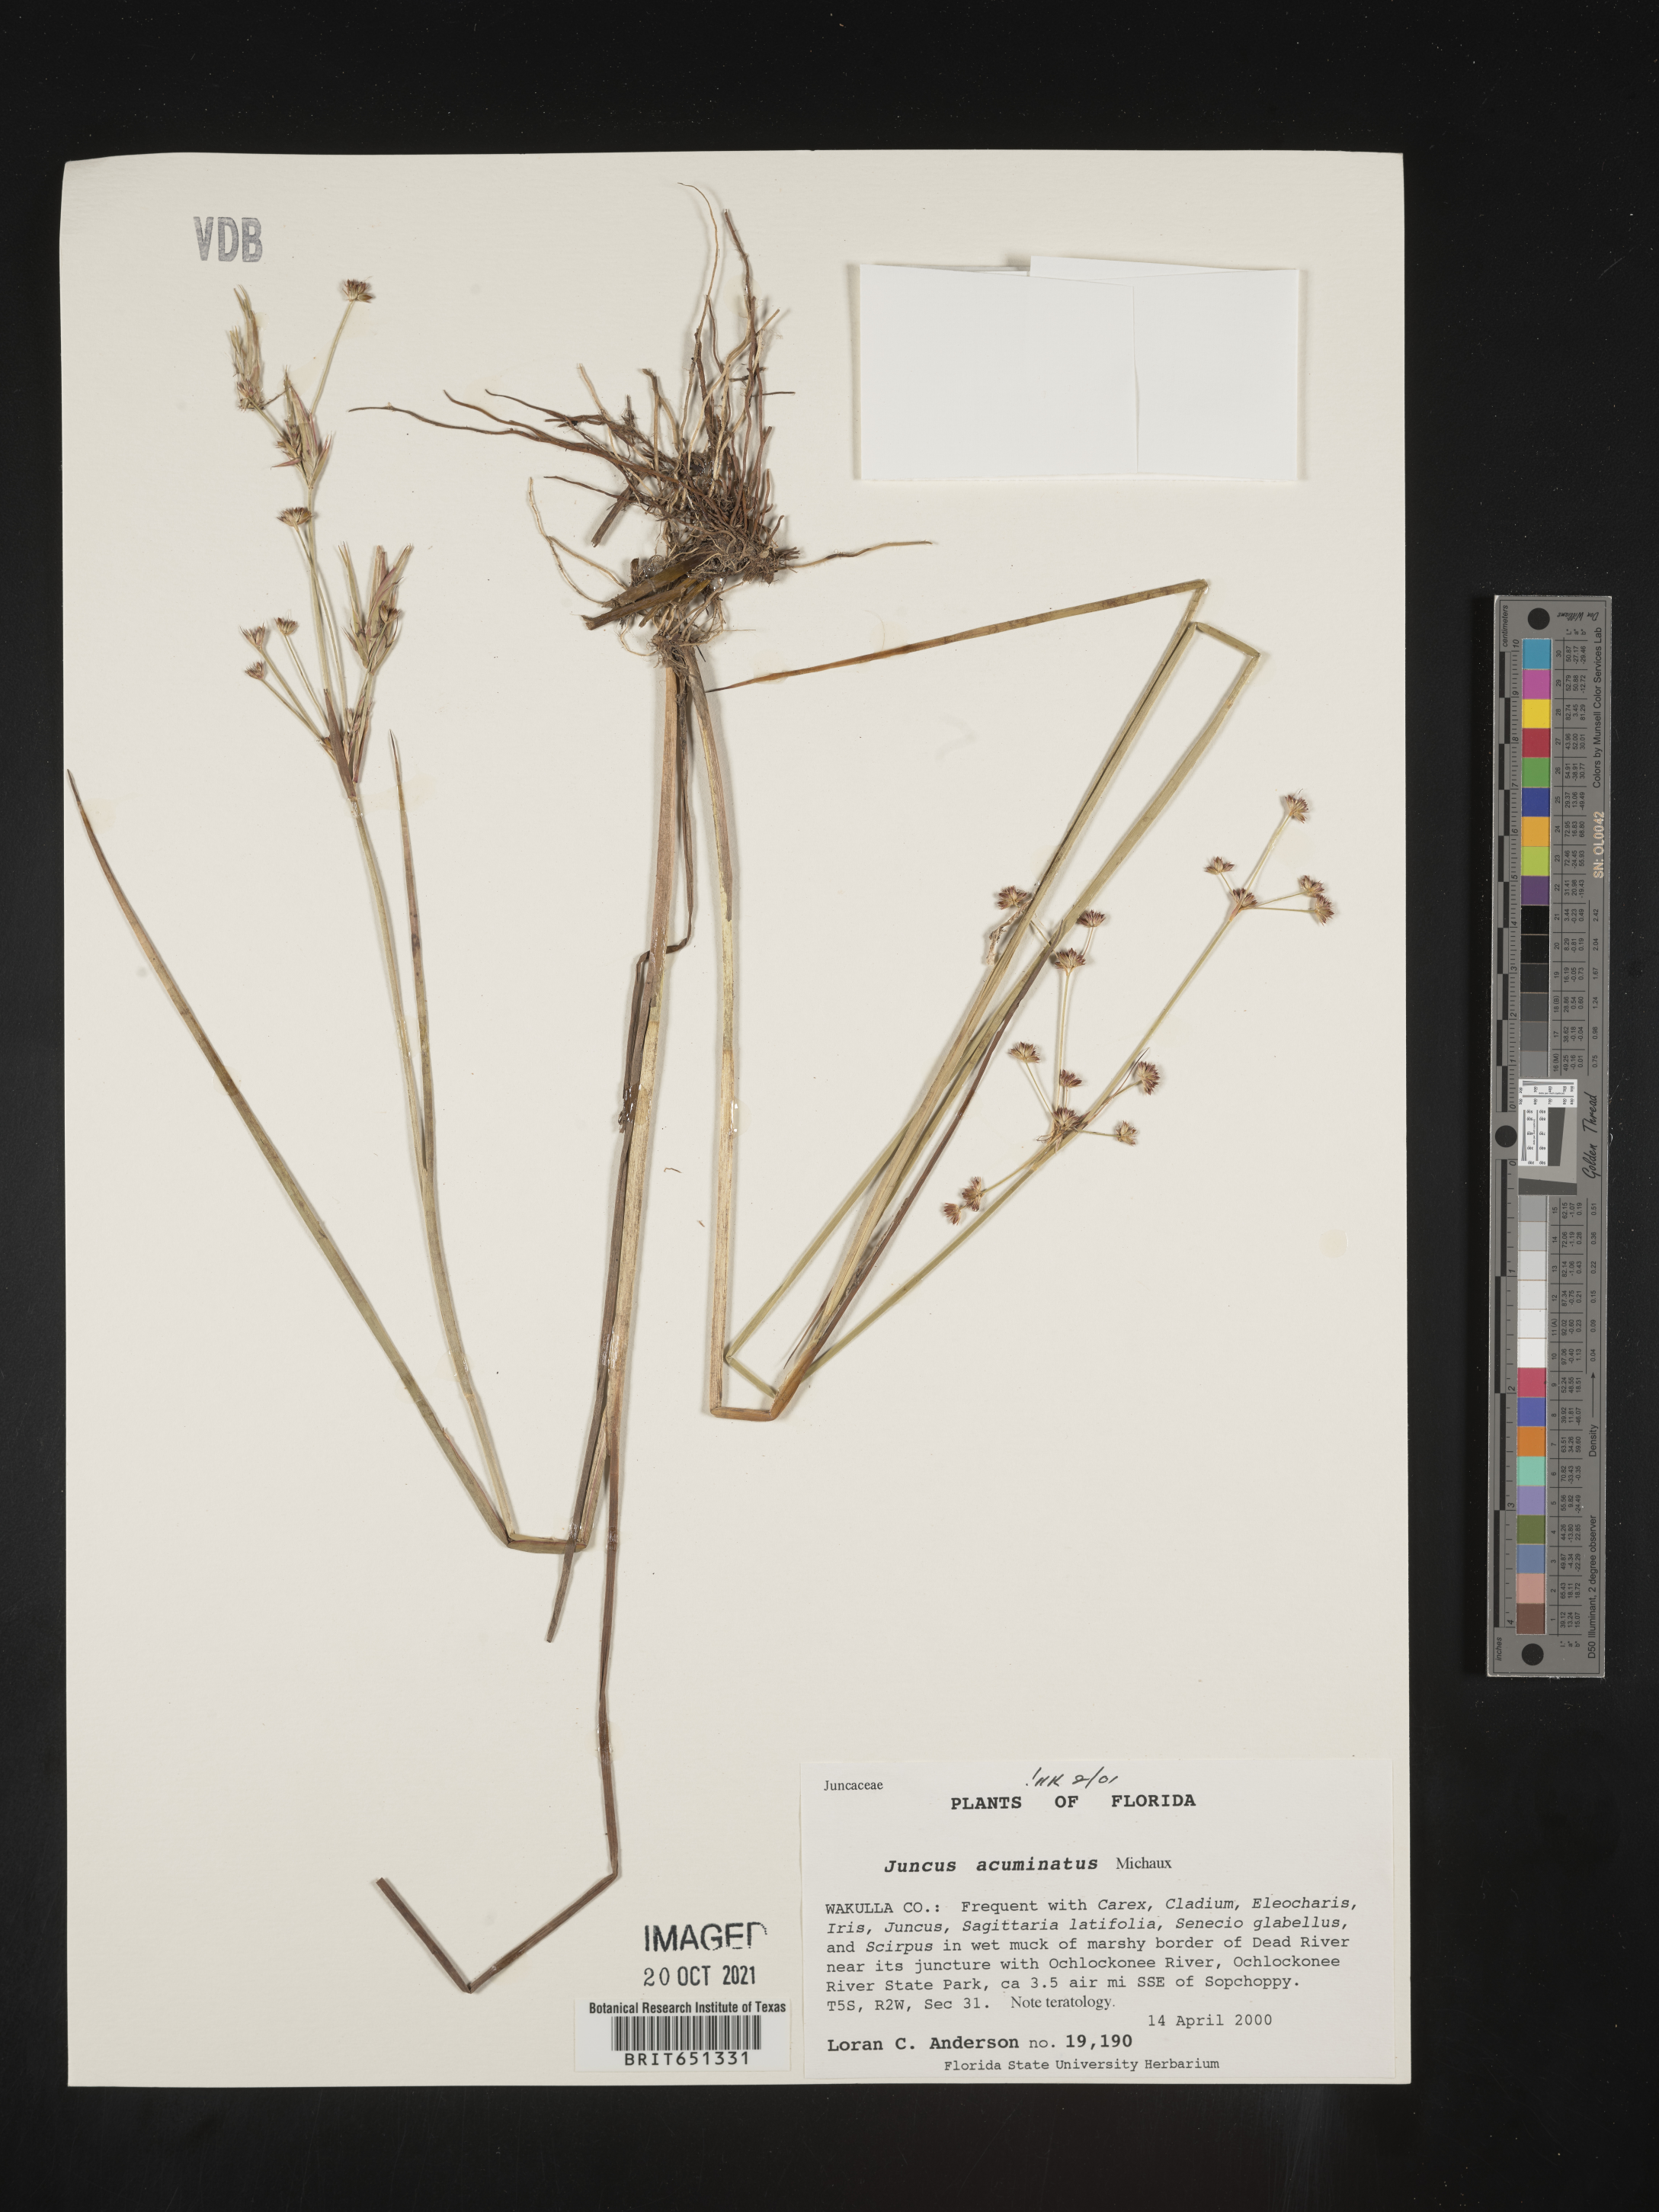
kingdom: Plantae
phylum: Tracheophyta
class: Liliopsida
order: Poales
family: Juncaceae
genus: Juncus
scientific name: Juncus acuminatus
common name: Knotty-leaved rush
